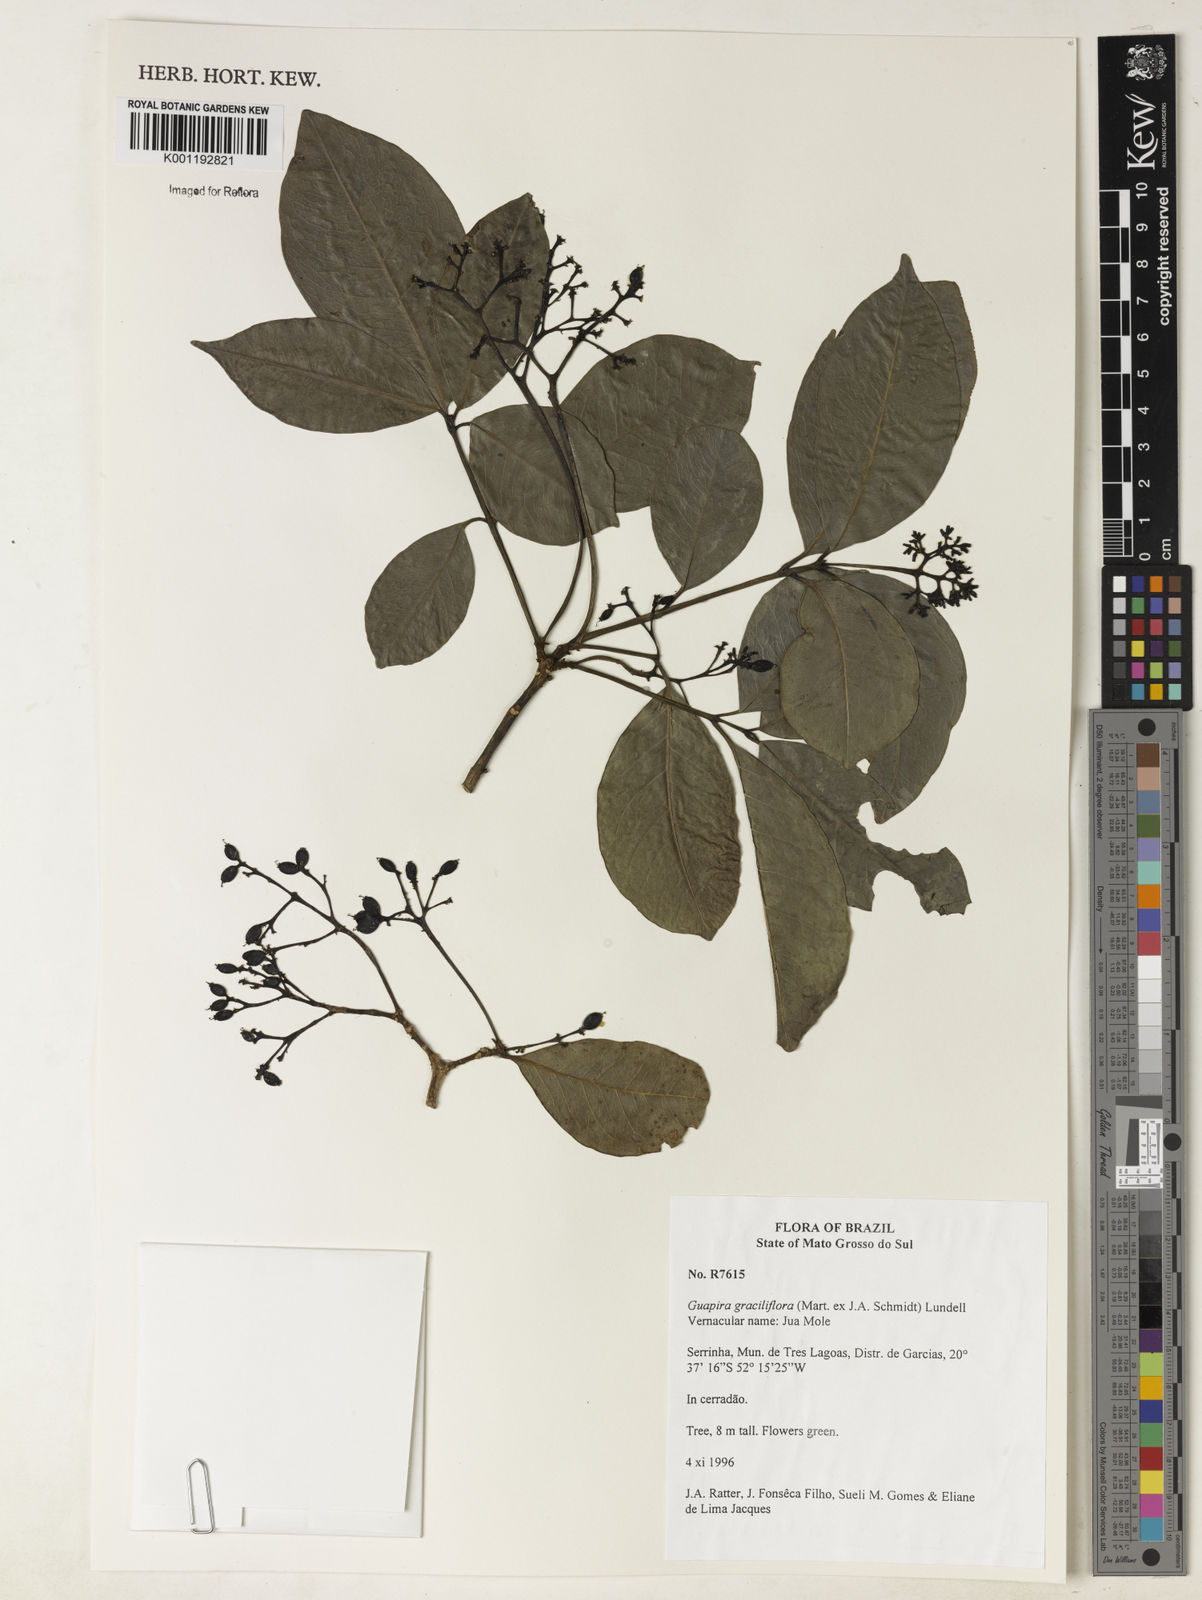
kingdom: Plantae
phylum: Tracheophyta
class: Magnoliopsida
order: Caryophyllales
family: Nyctaginaceae
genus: Guapira
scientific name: Guapira graciliflora
